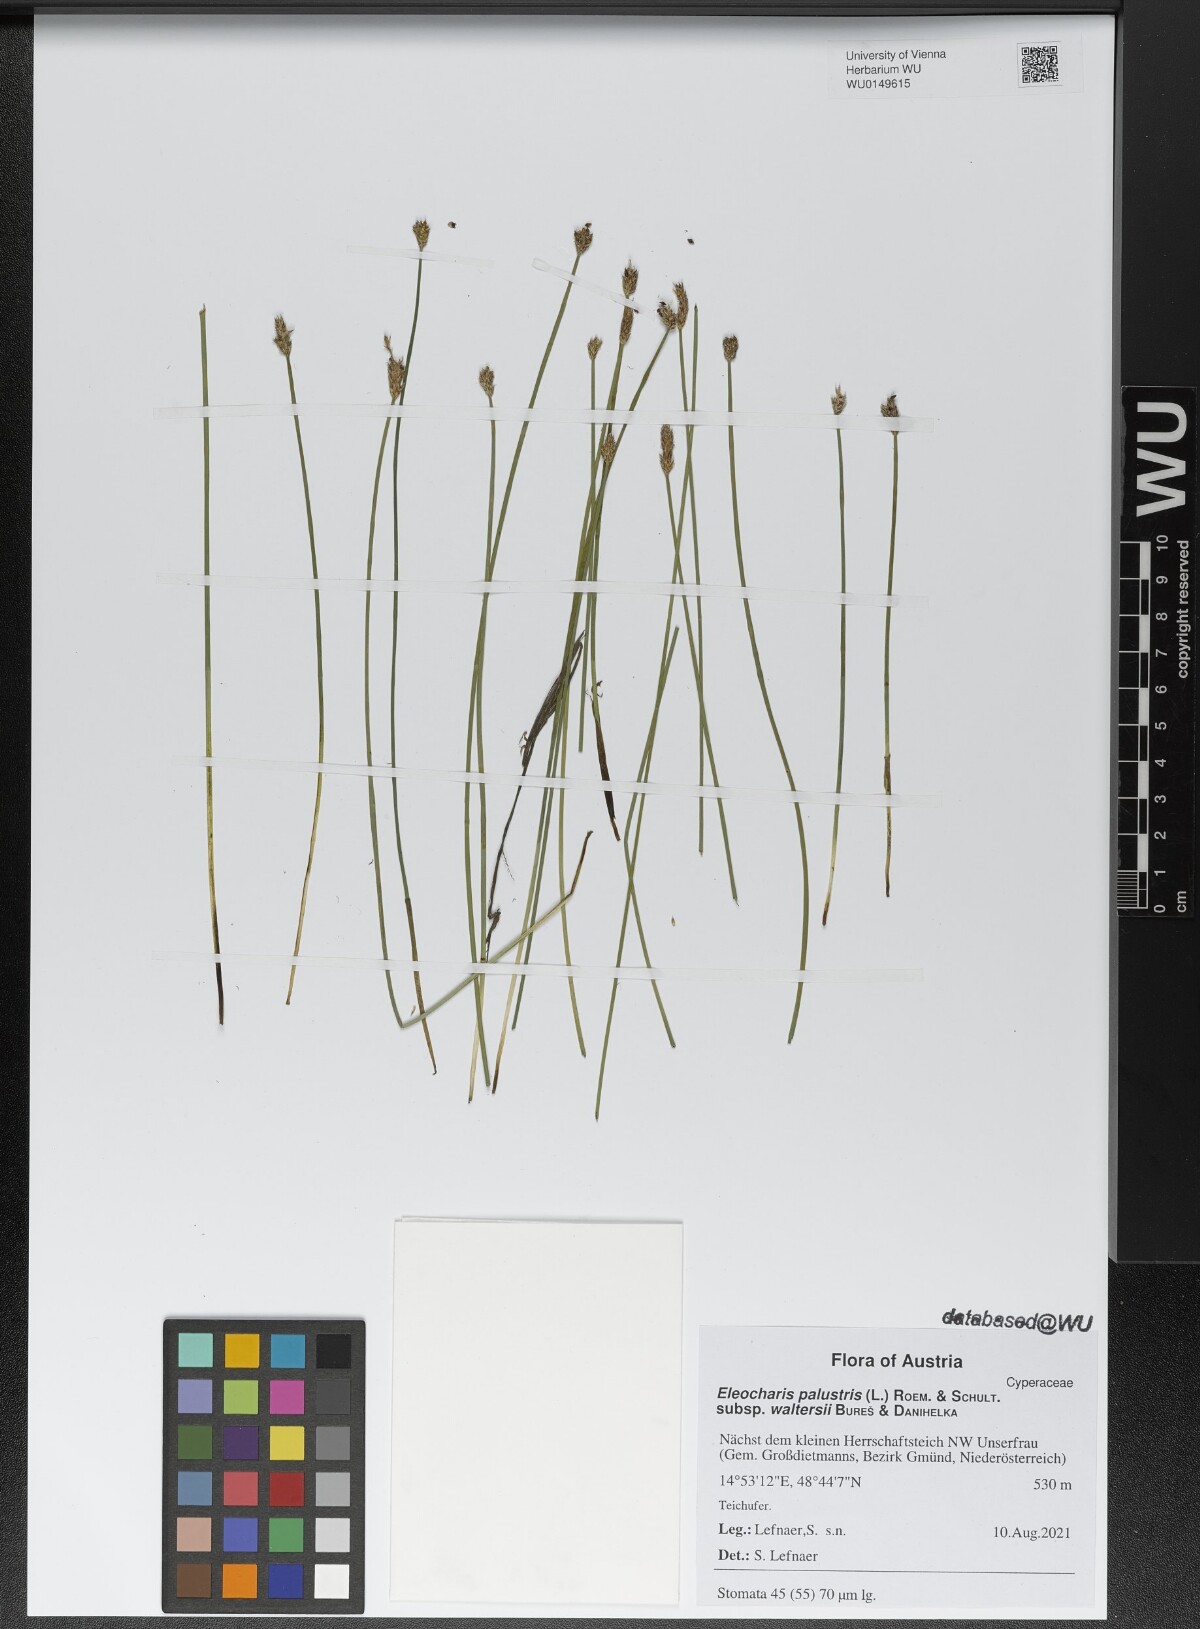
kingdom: Plantae
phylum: Tracheophyta
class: Liliopsida
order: Poales
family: Cyperaceae
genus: Eleocharis
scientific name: Eleocharis palustris
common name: Common spike-rush
